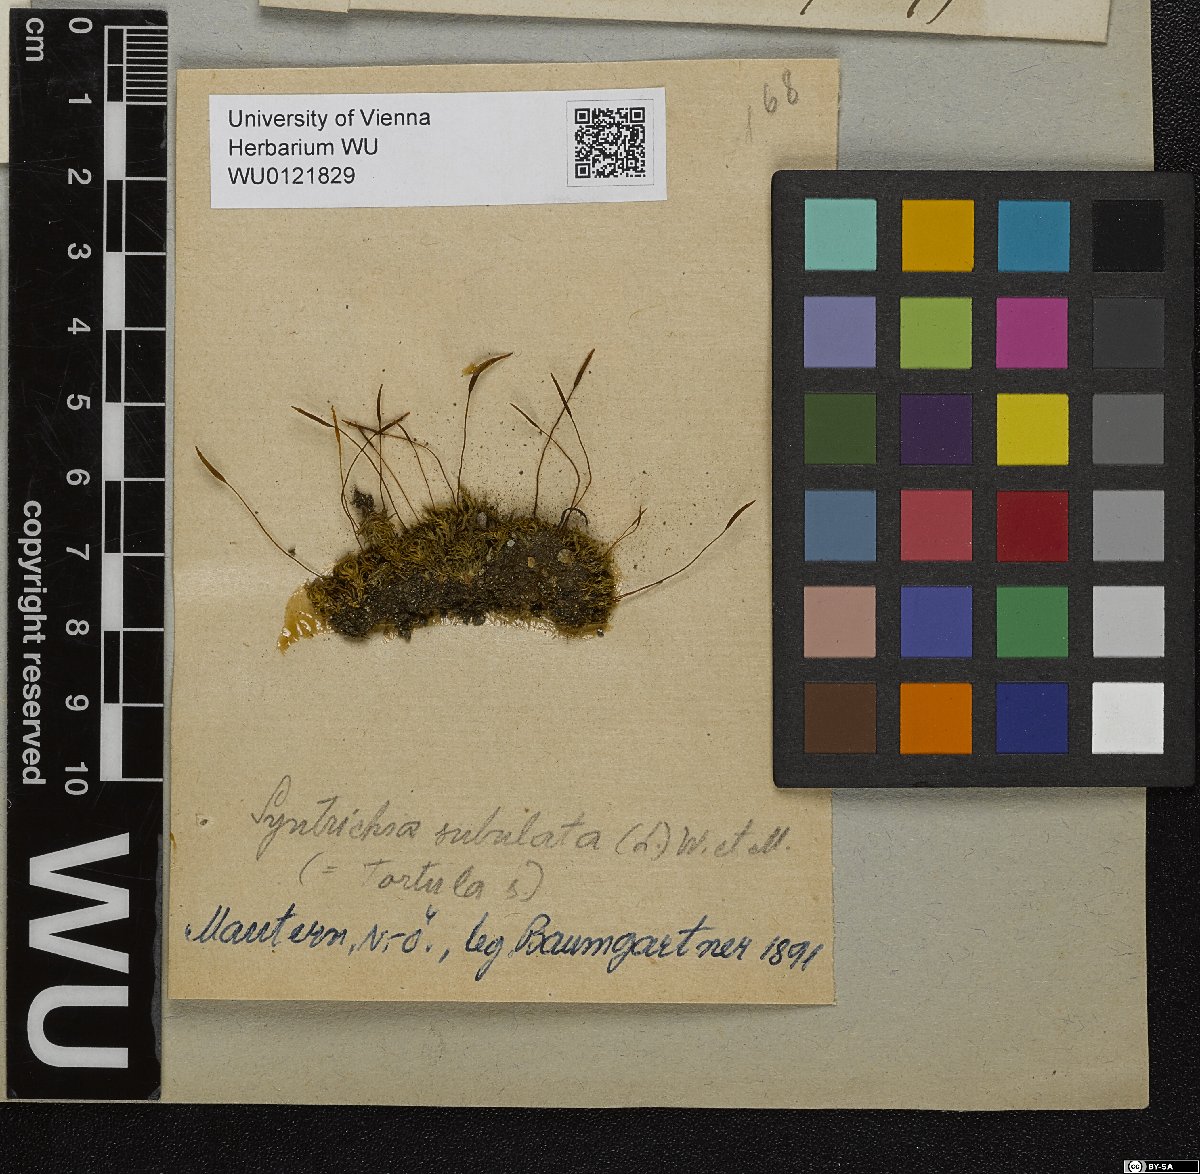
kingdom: Plantae
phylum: Bryophyta
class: Bryopsida
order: Pottiales
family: Pottiaceae
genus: Tortula
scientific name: Tortula subulata
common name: Upright screw-moss
